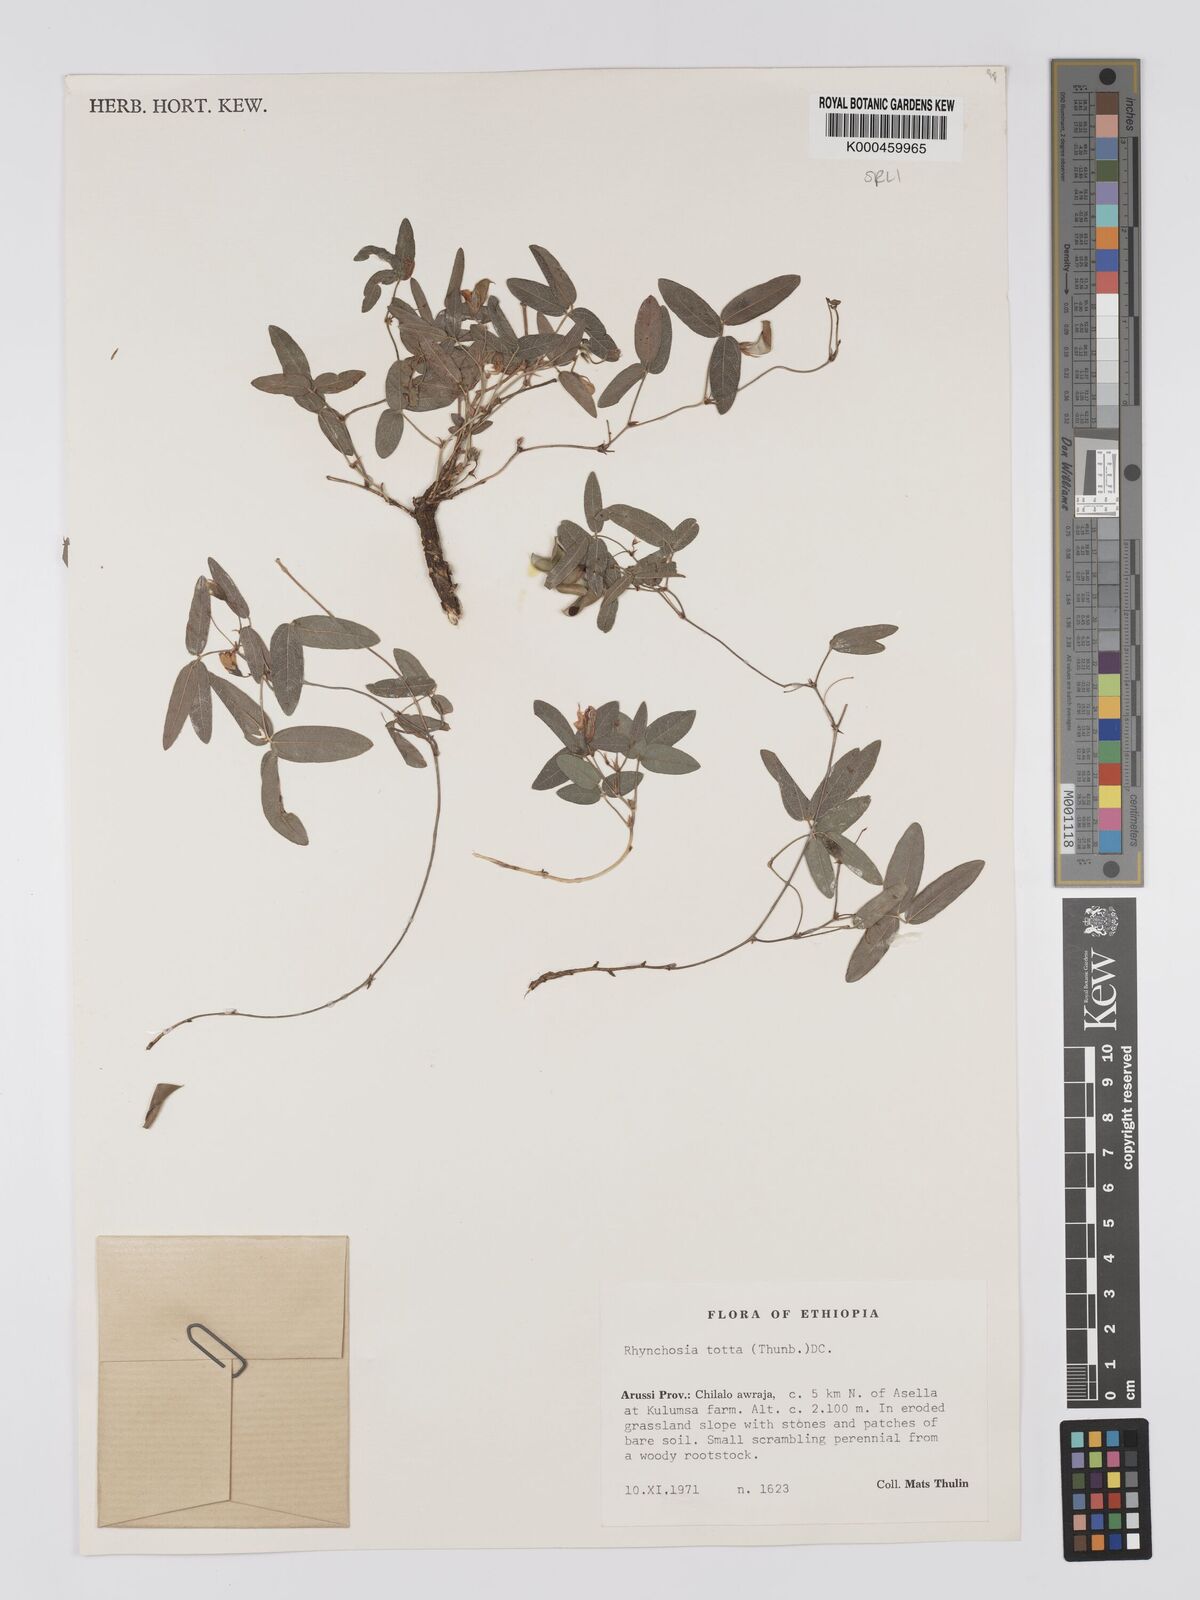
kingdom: Plantae
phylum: Tracheophyta
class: Magnoliopsida
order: Fabales
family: Fabaceae
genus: Rhynchosia
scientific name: Rhynchosia totta
